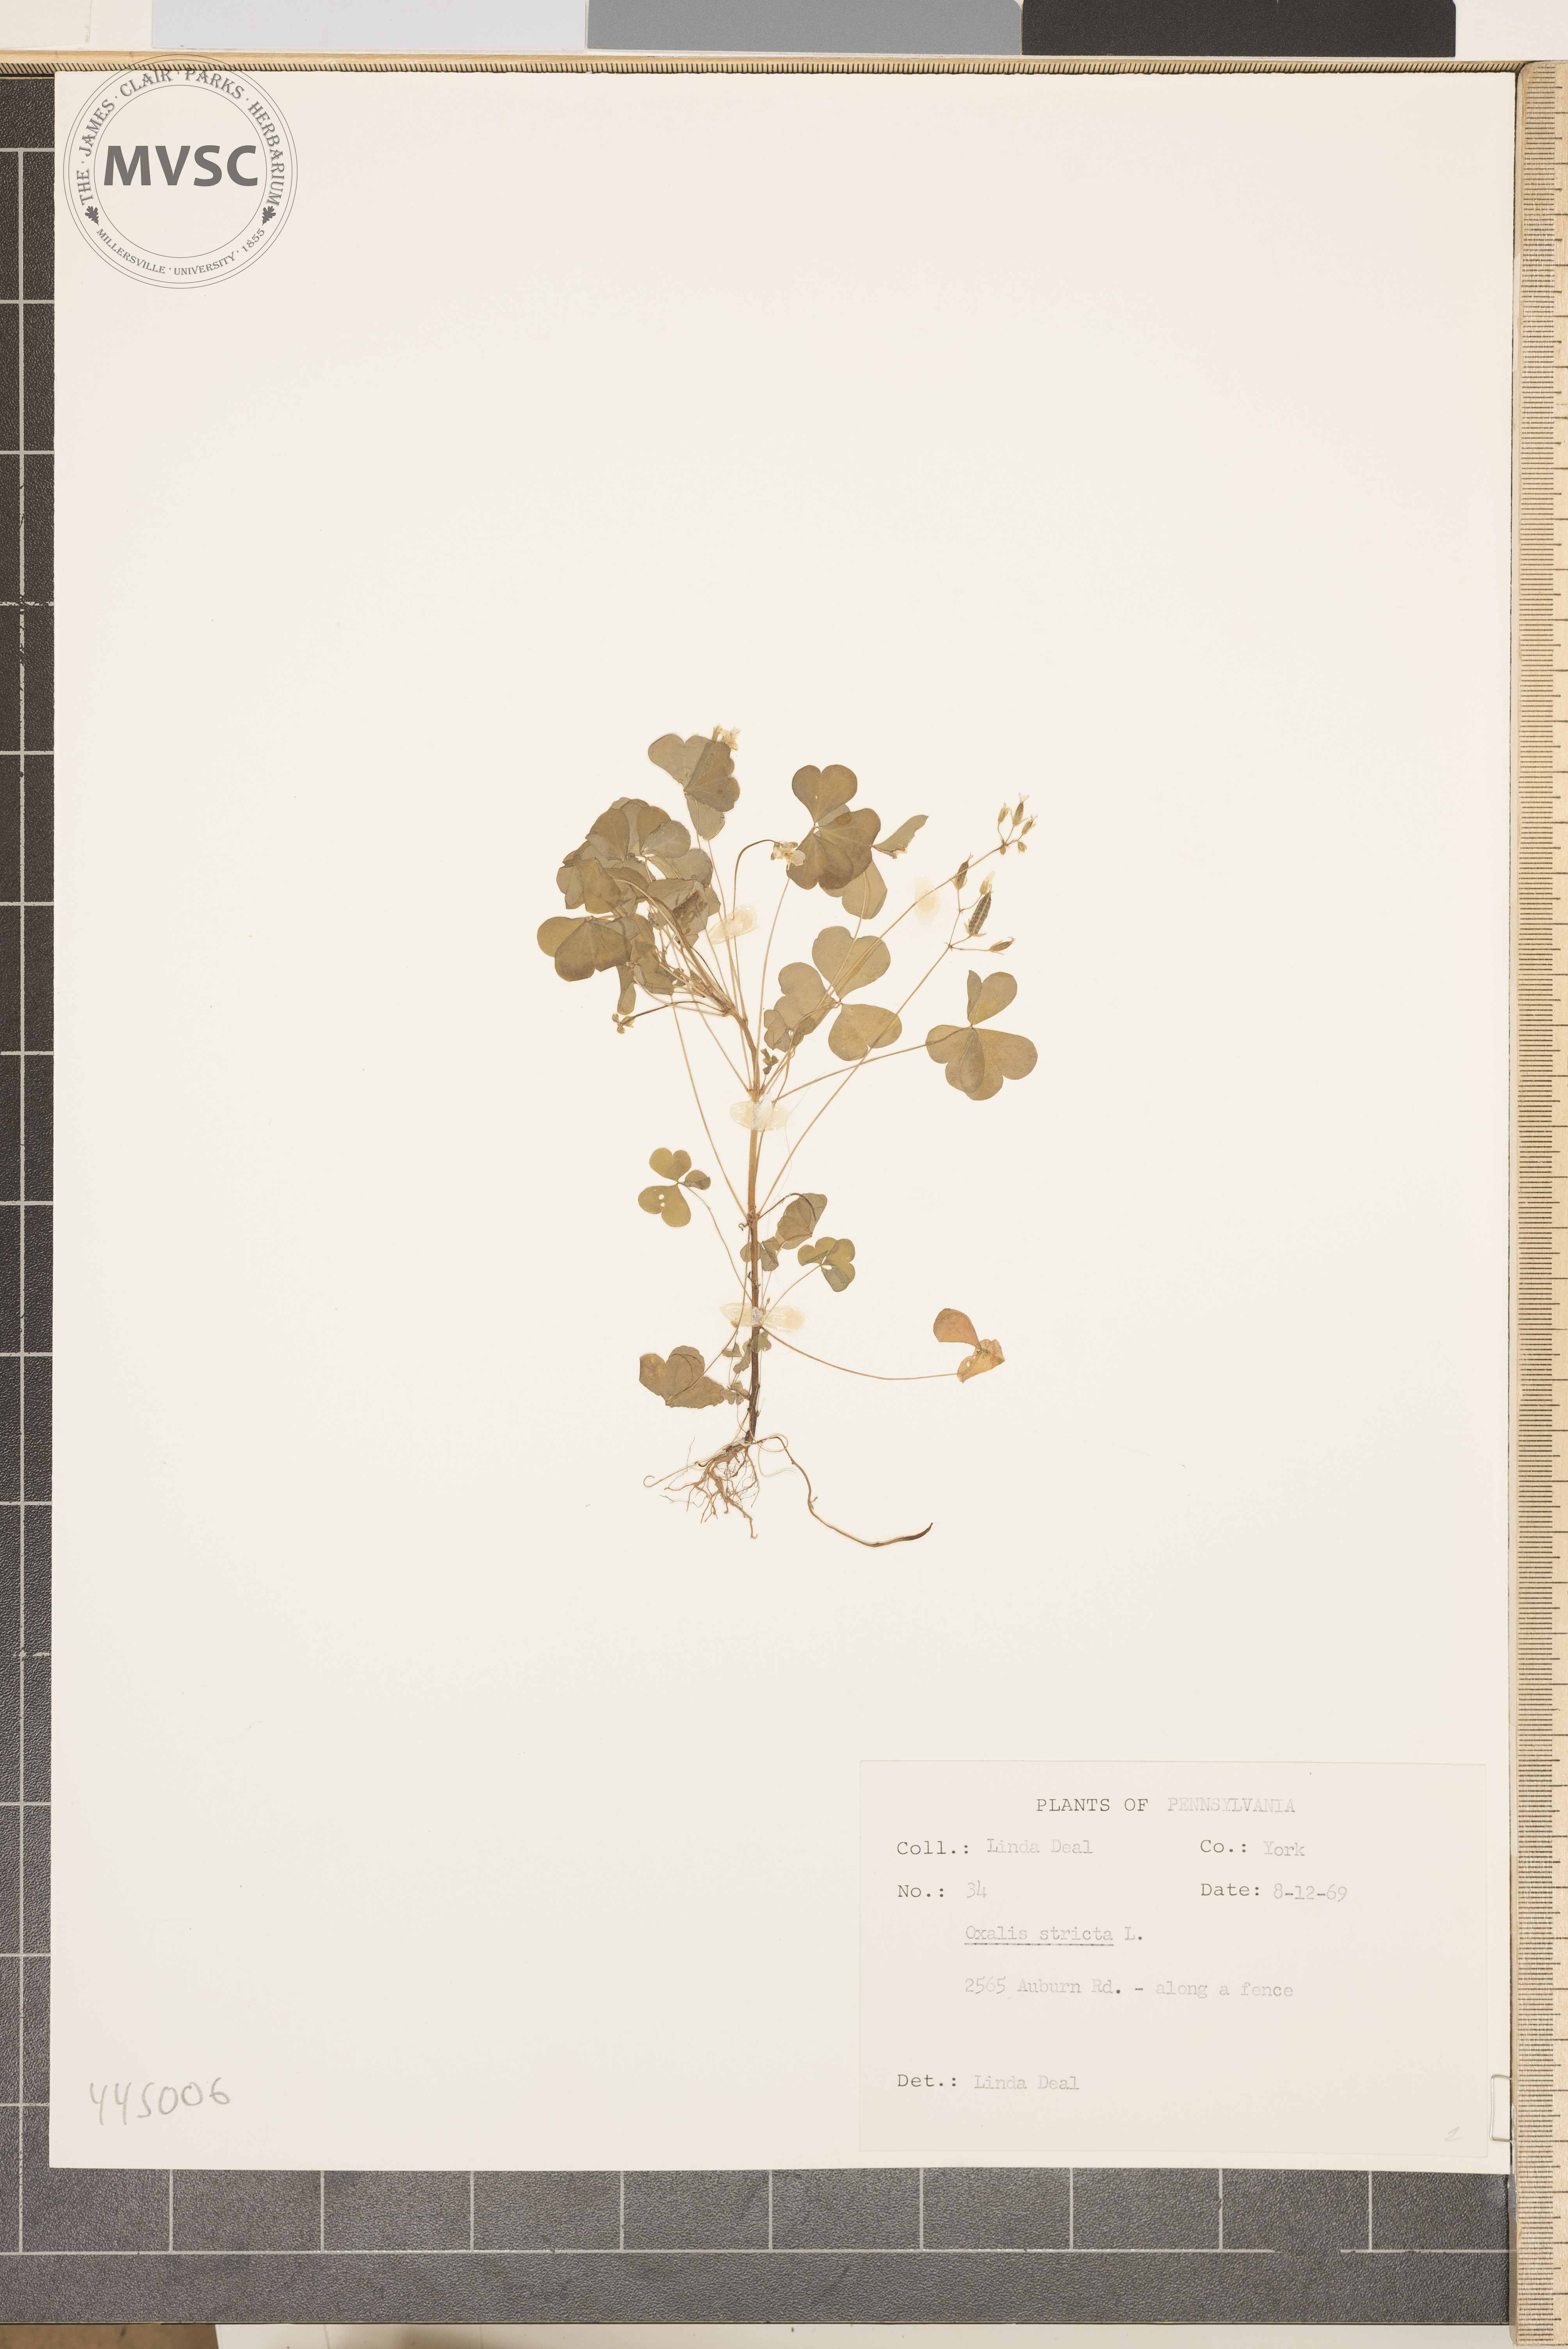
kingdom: Plantae
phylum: Tracheophyta
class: Magnoliopsida
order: Oxalidales
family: Oxalidaceae
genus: Oxalis
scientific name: Oxalis stricta
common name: Upright yellow-sorrel
